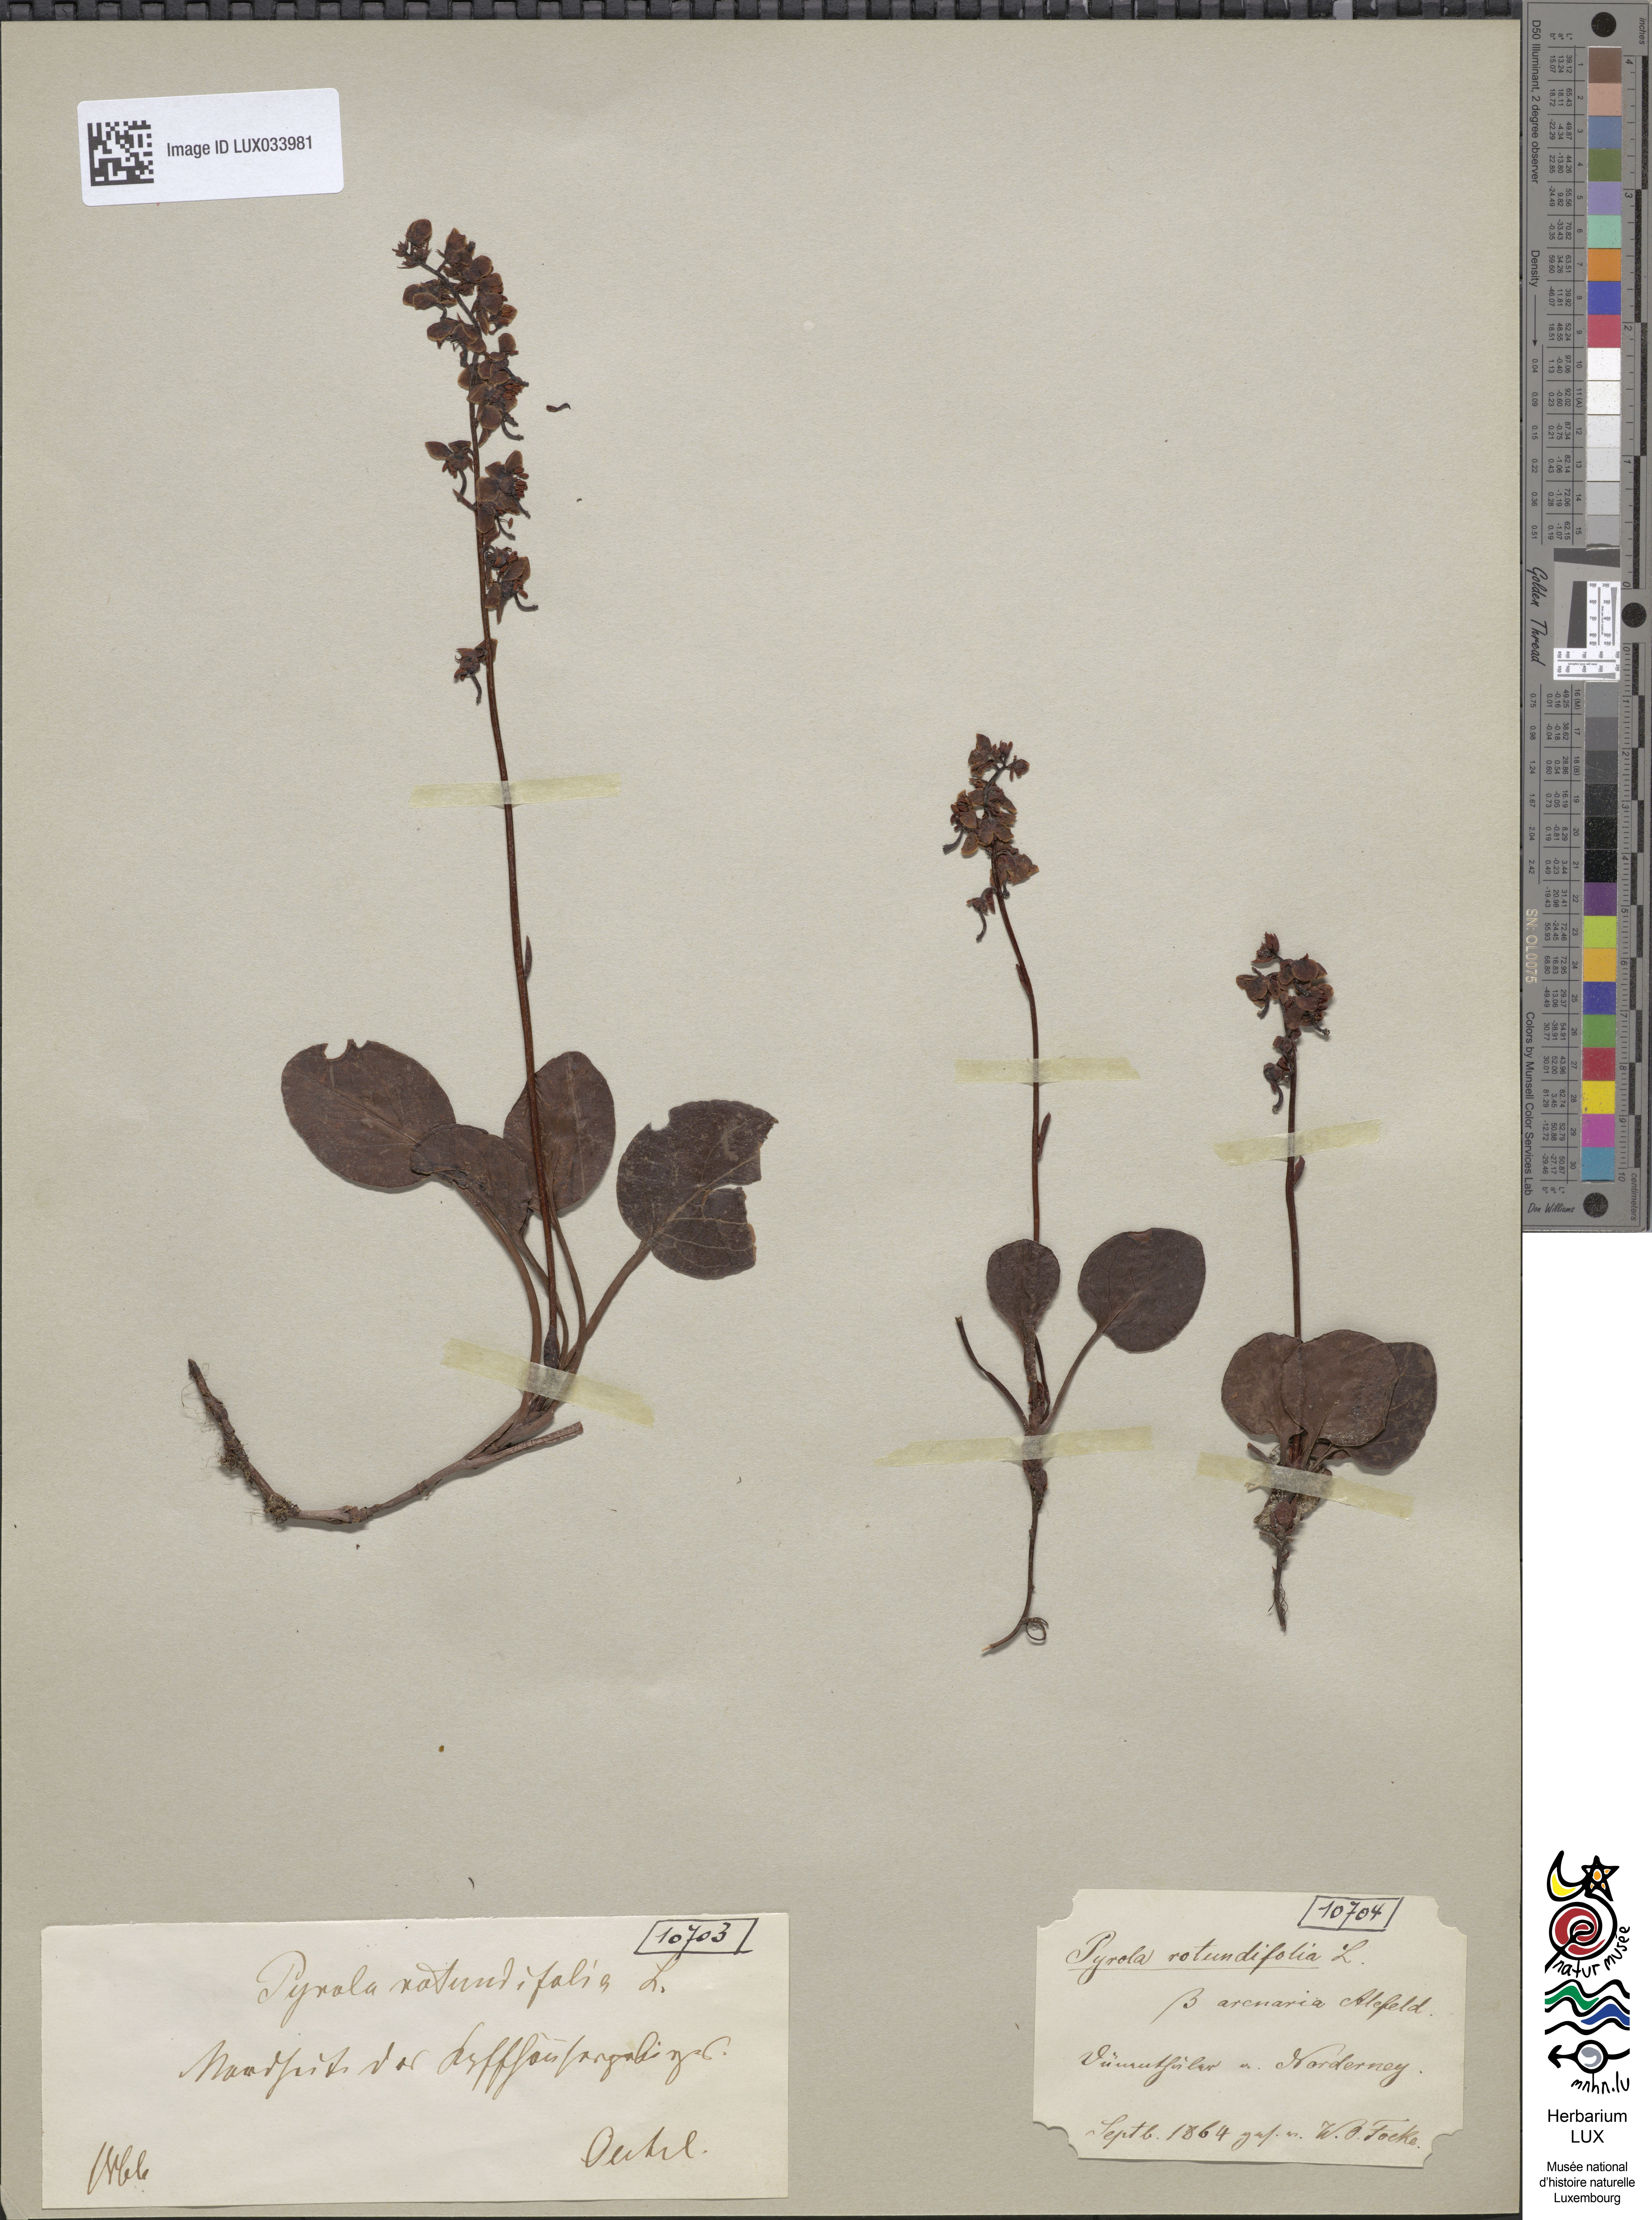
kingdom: Plantae
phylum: Tracheophyta
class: Magnoliopsida
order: Ericales
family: Ericaceae
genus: Pyrola
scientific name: Pyrola rotundifolia
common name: Round-leaved wintergreen
